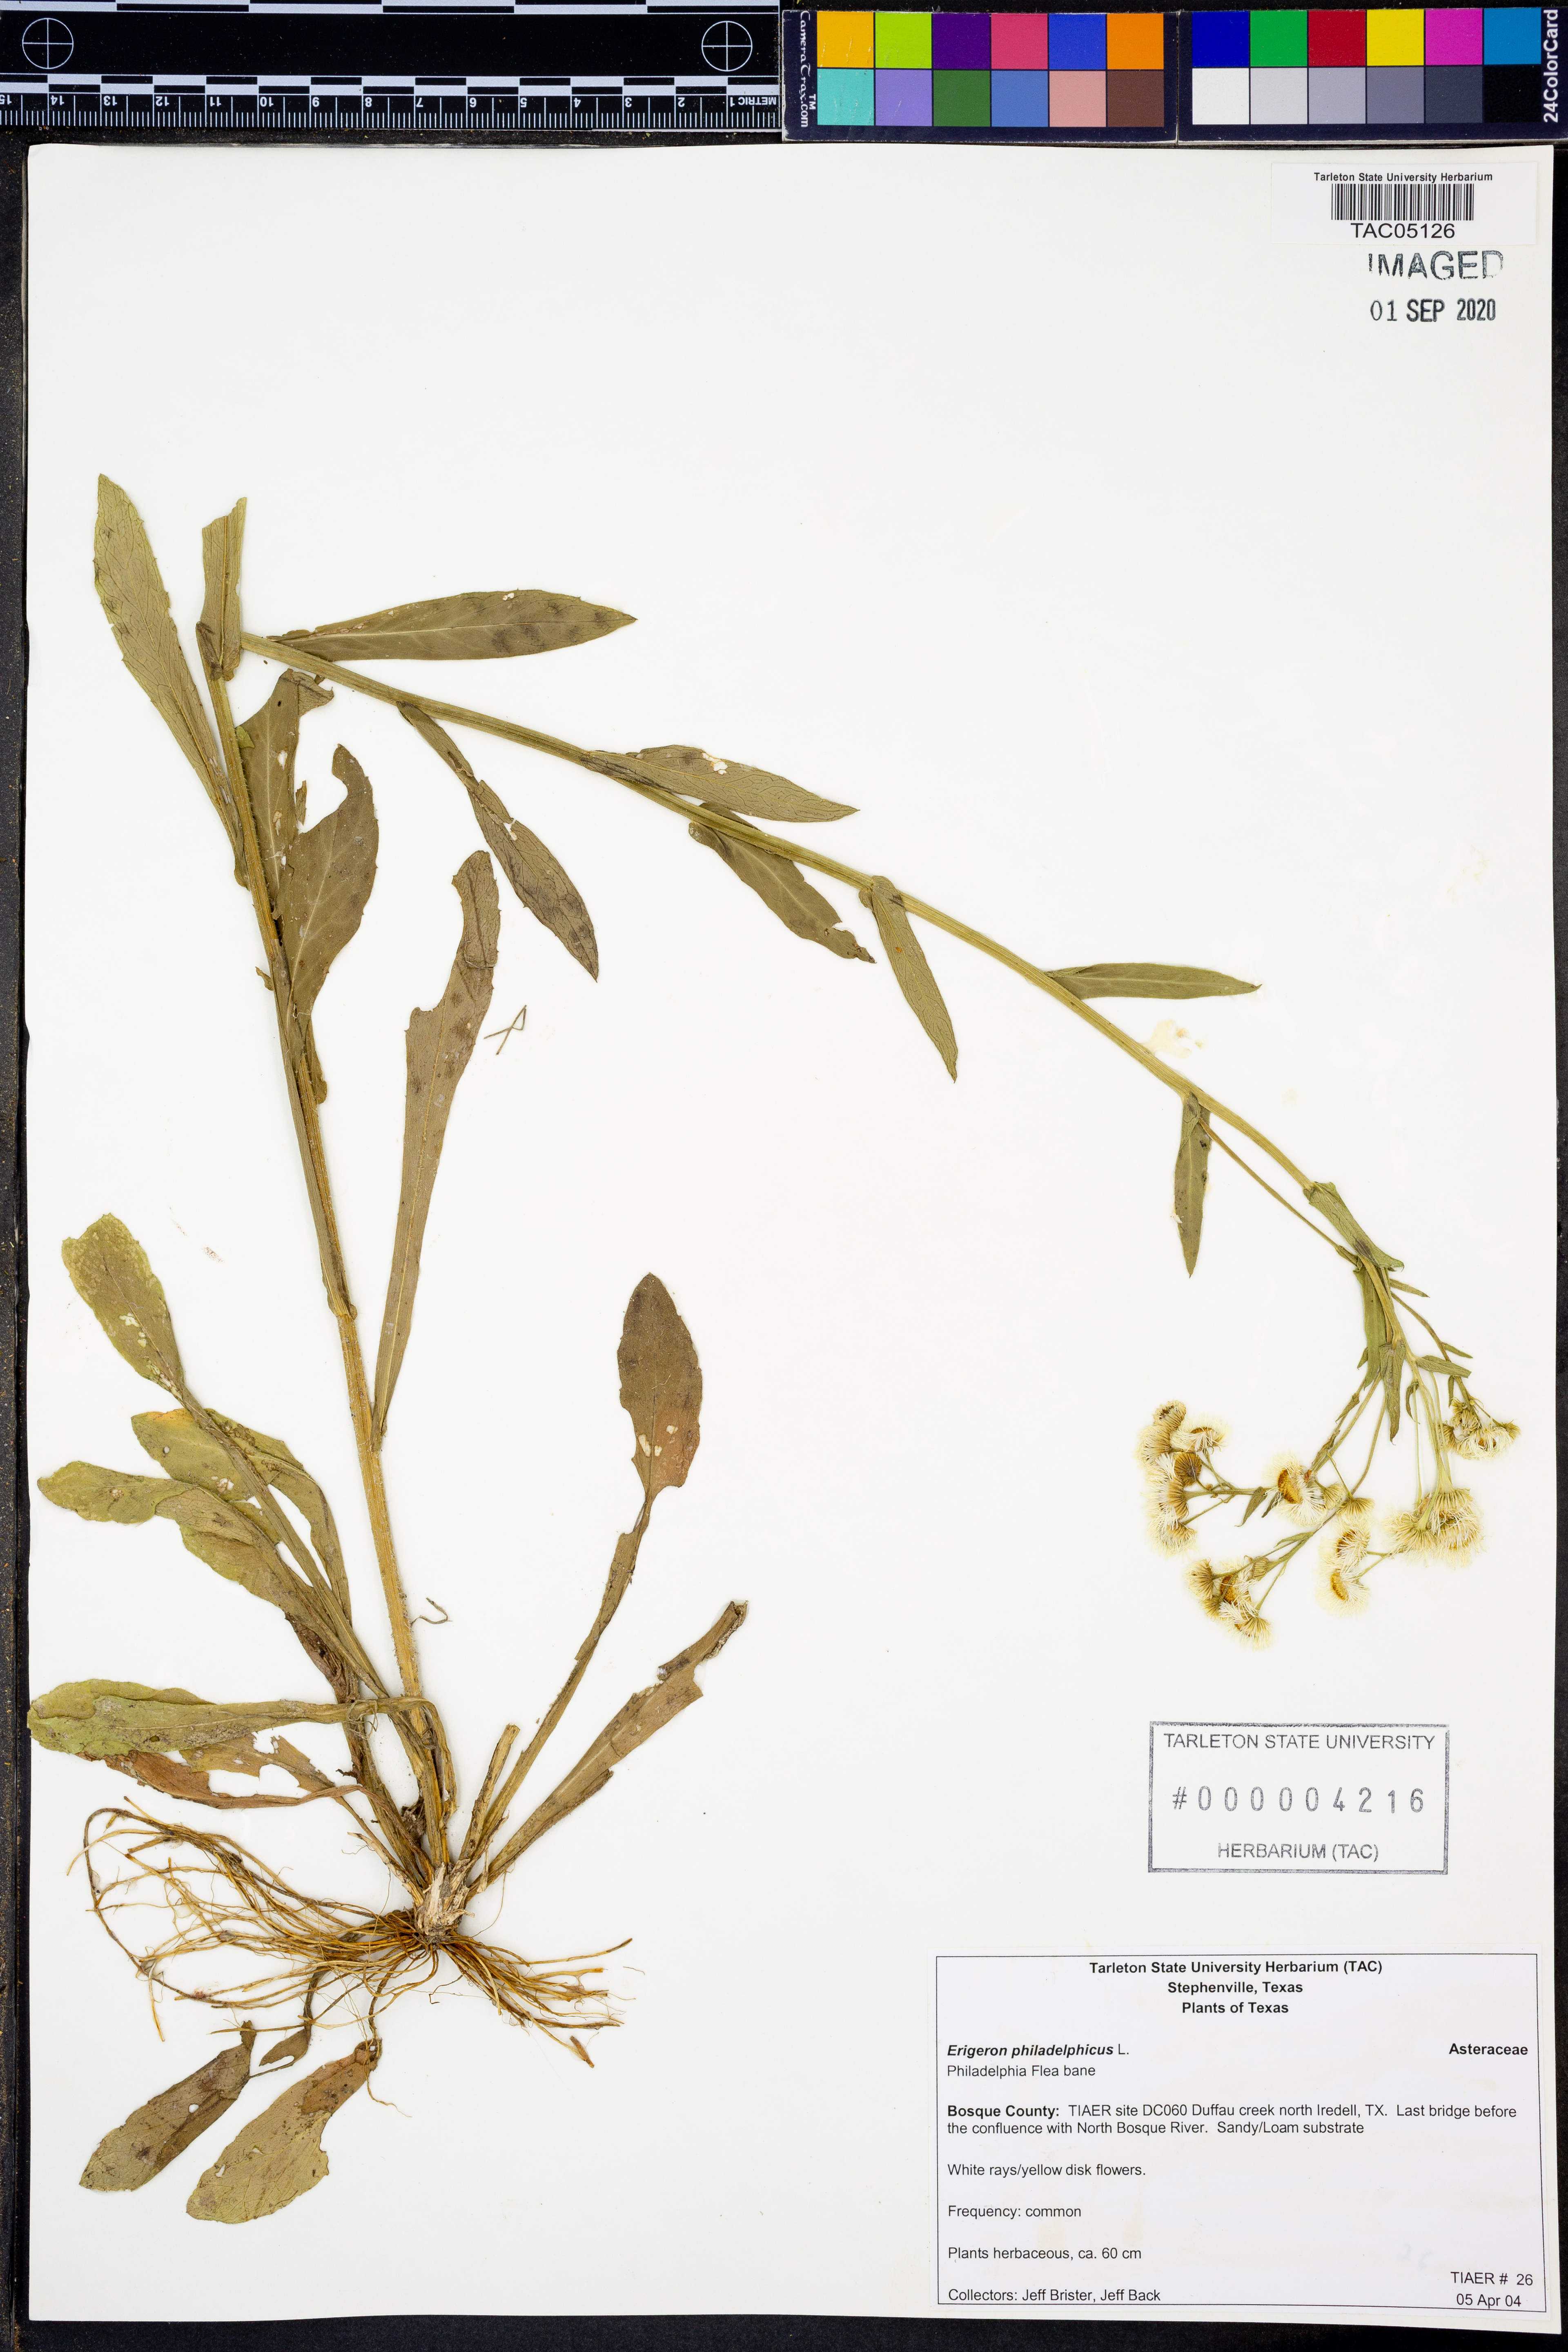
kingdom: Plantae
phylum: Tracheophyta
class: Magnoliopsida
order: Asterales
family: Asteraceae
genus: Erigeron
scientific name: Erigeron philadelphicus
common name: Robin's-plantain
